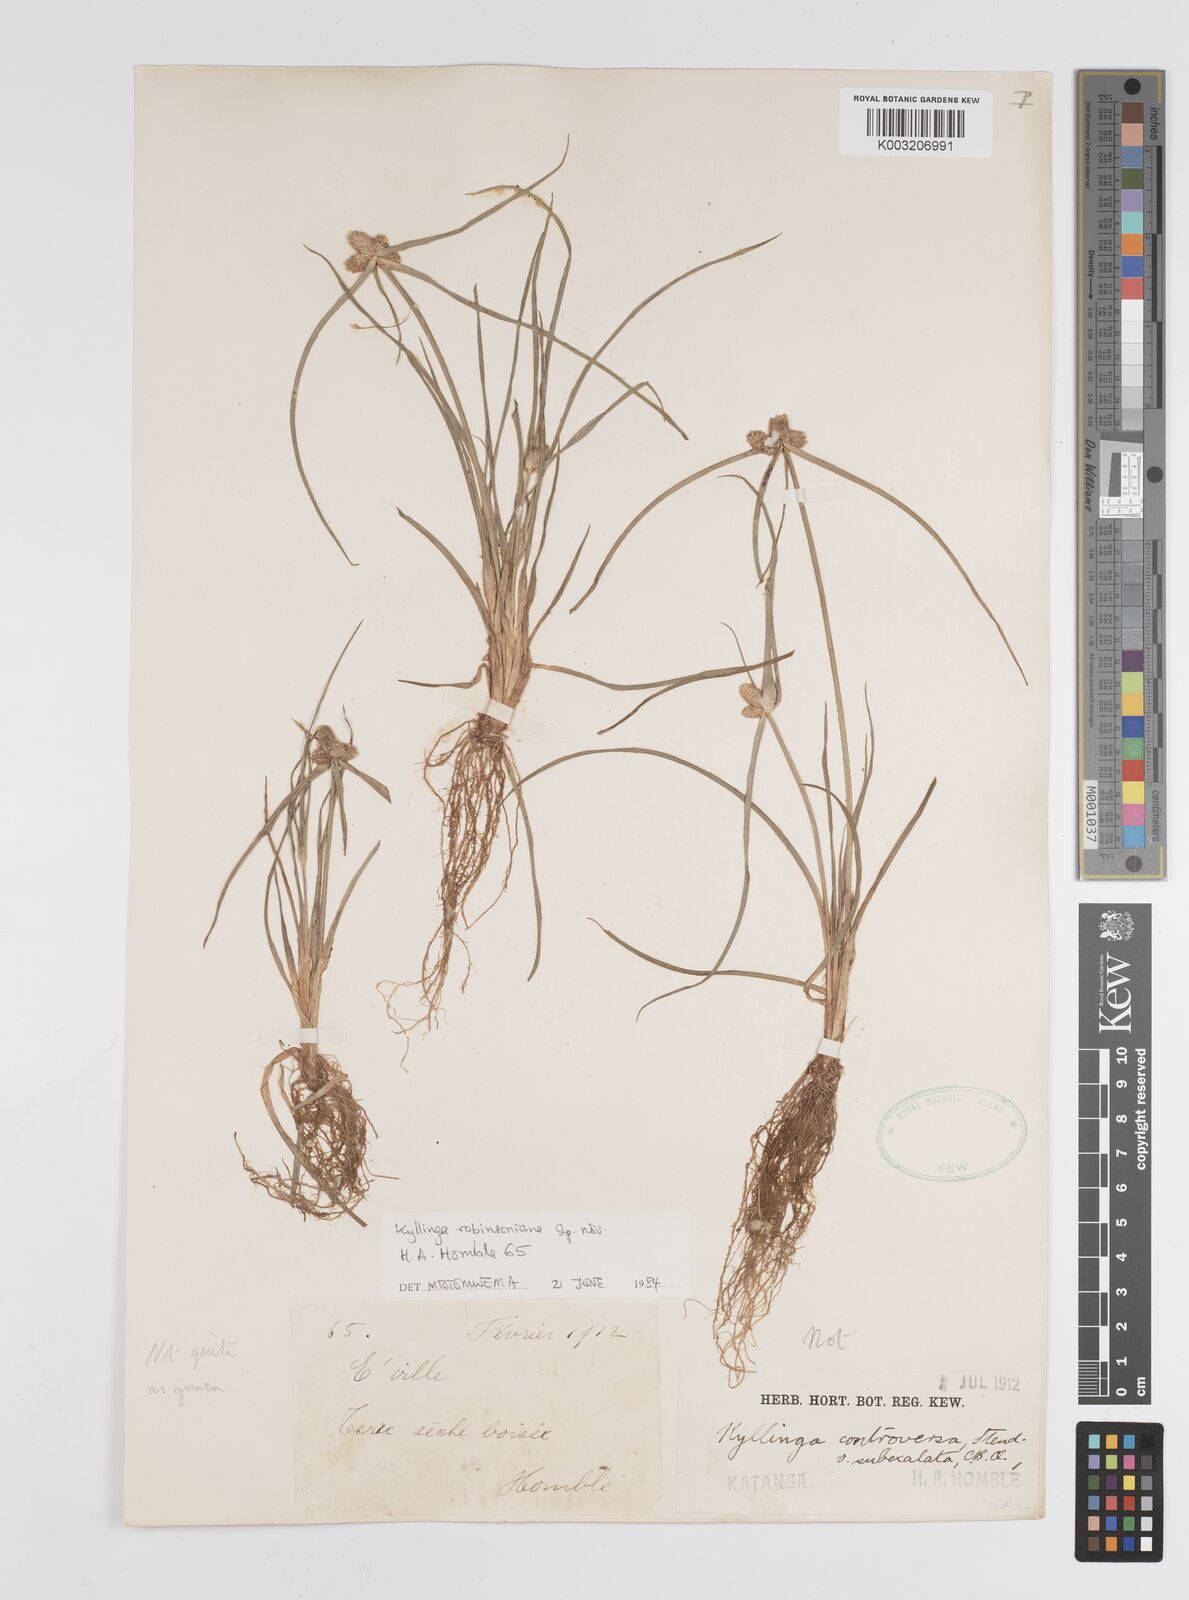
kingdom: Plantae
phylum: Tracheophyta
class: Liliopsida
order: Poales
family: Cyperaceae
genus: Cyperus
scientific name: Cyperus robinsonianus
